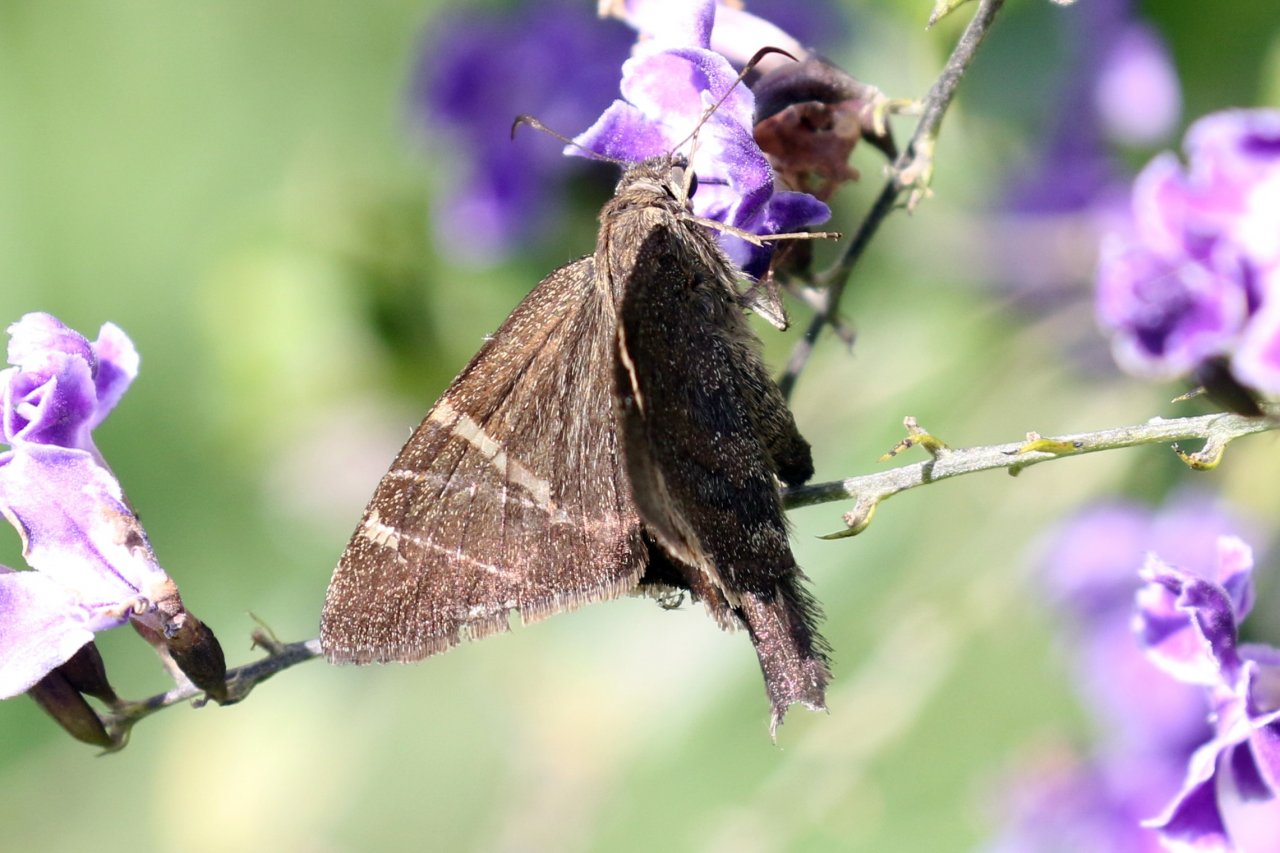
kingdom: Animalia
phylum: Arthropoda
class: Insecta
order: Lepidoptera
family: Hesperiidae
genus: Urbanus
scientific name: Urbanus procne
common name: Brown Longtail
